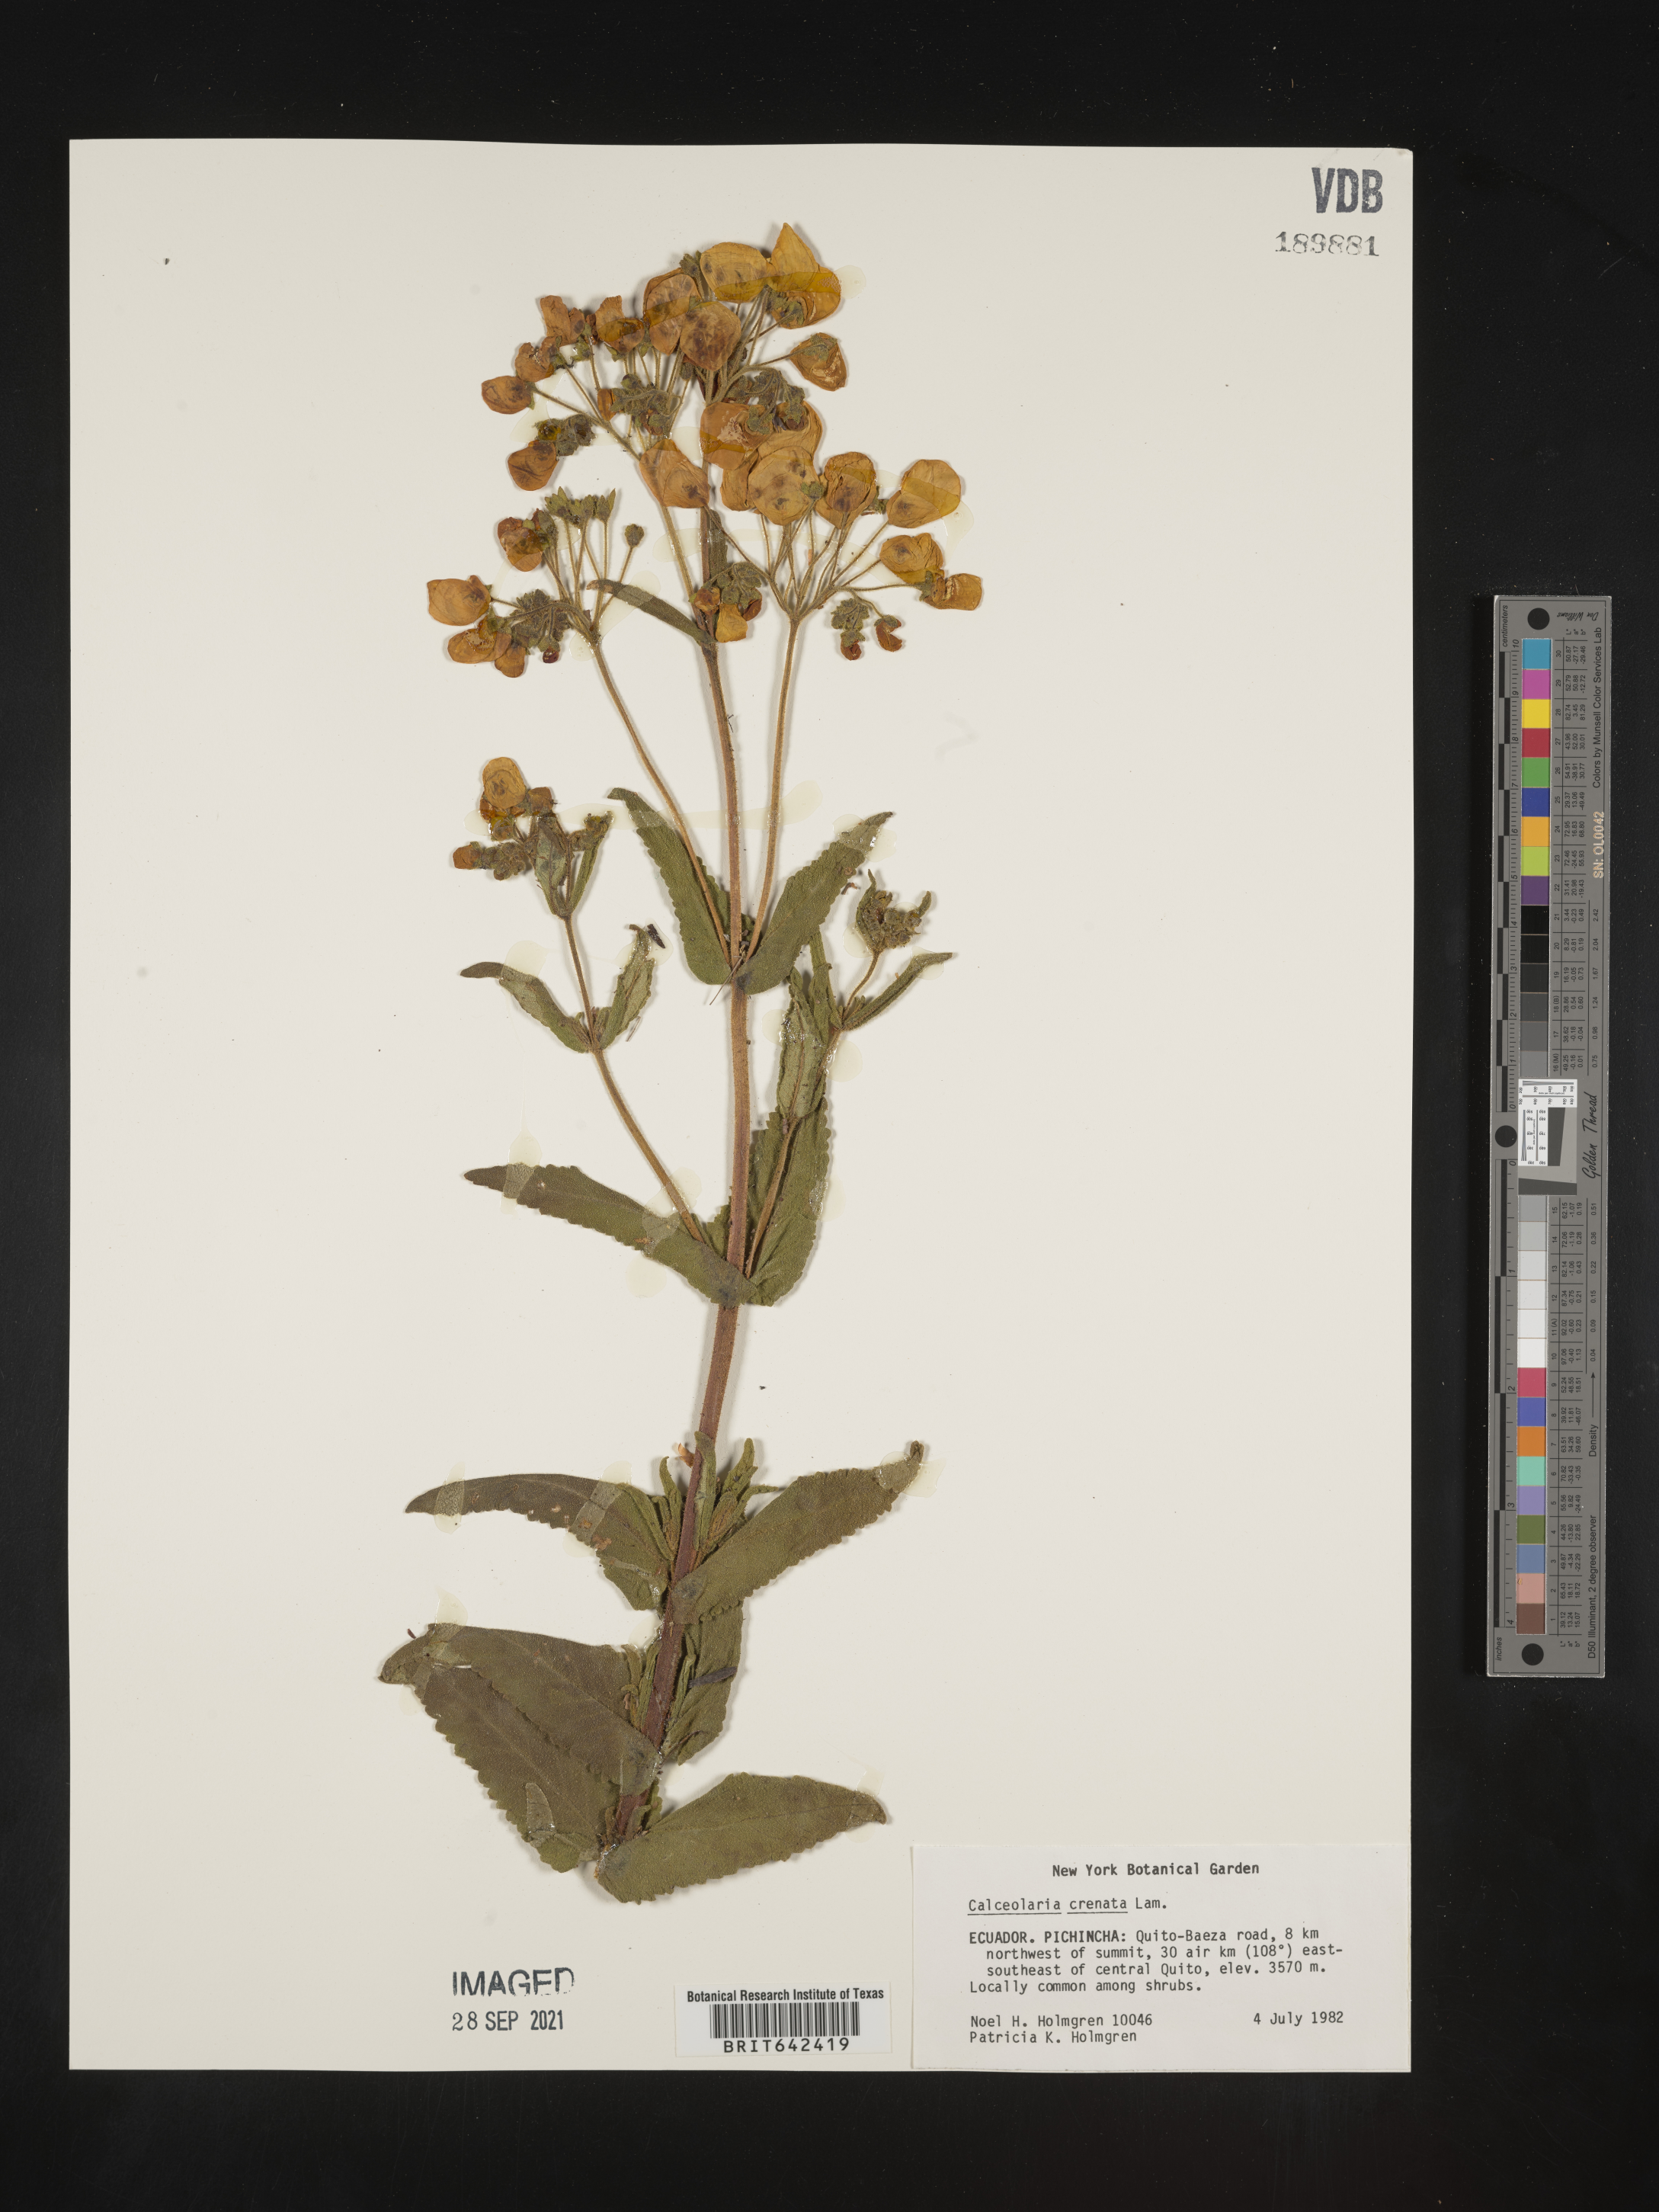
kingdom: Plantae
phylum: Tracheophyta
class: Magnoliopsida
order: Lamiales
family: Calceolariaceae
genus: Calceolaria
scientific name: Calceolaria crenata
